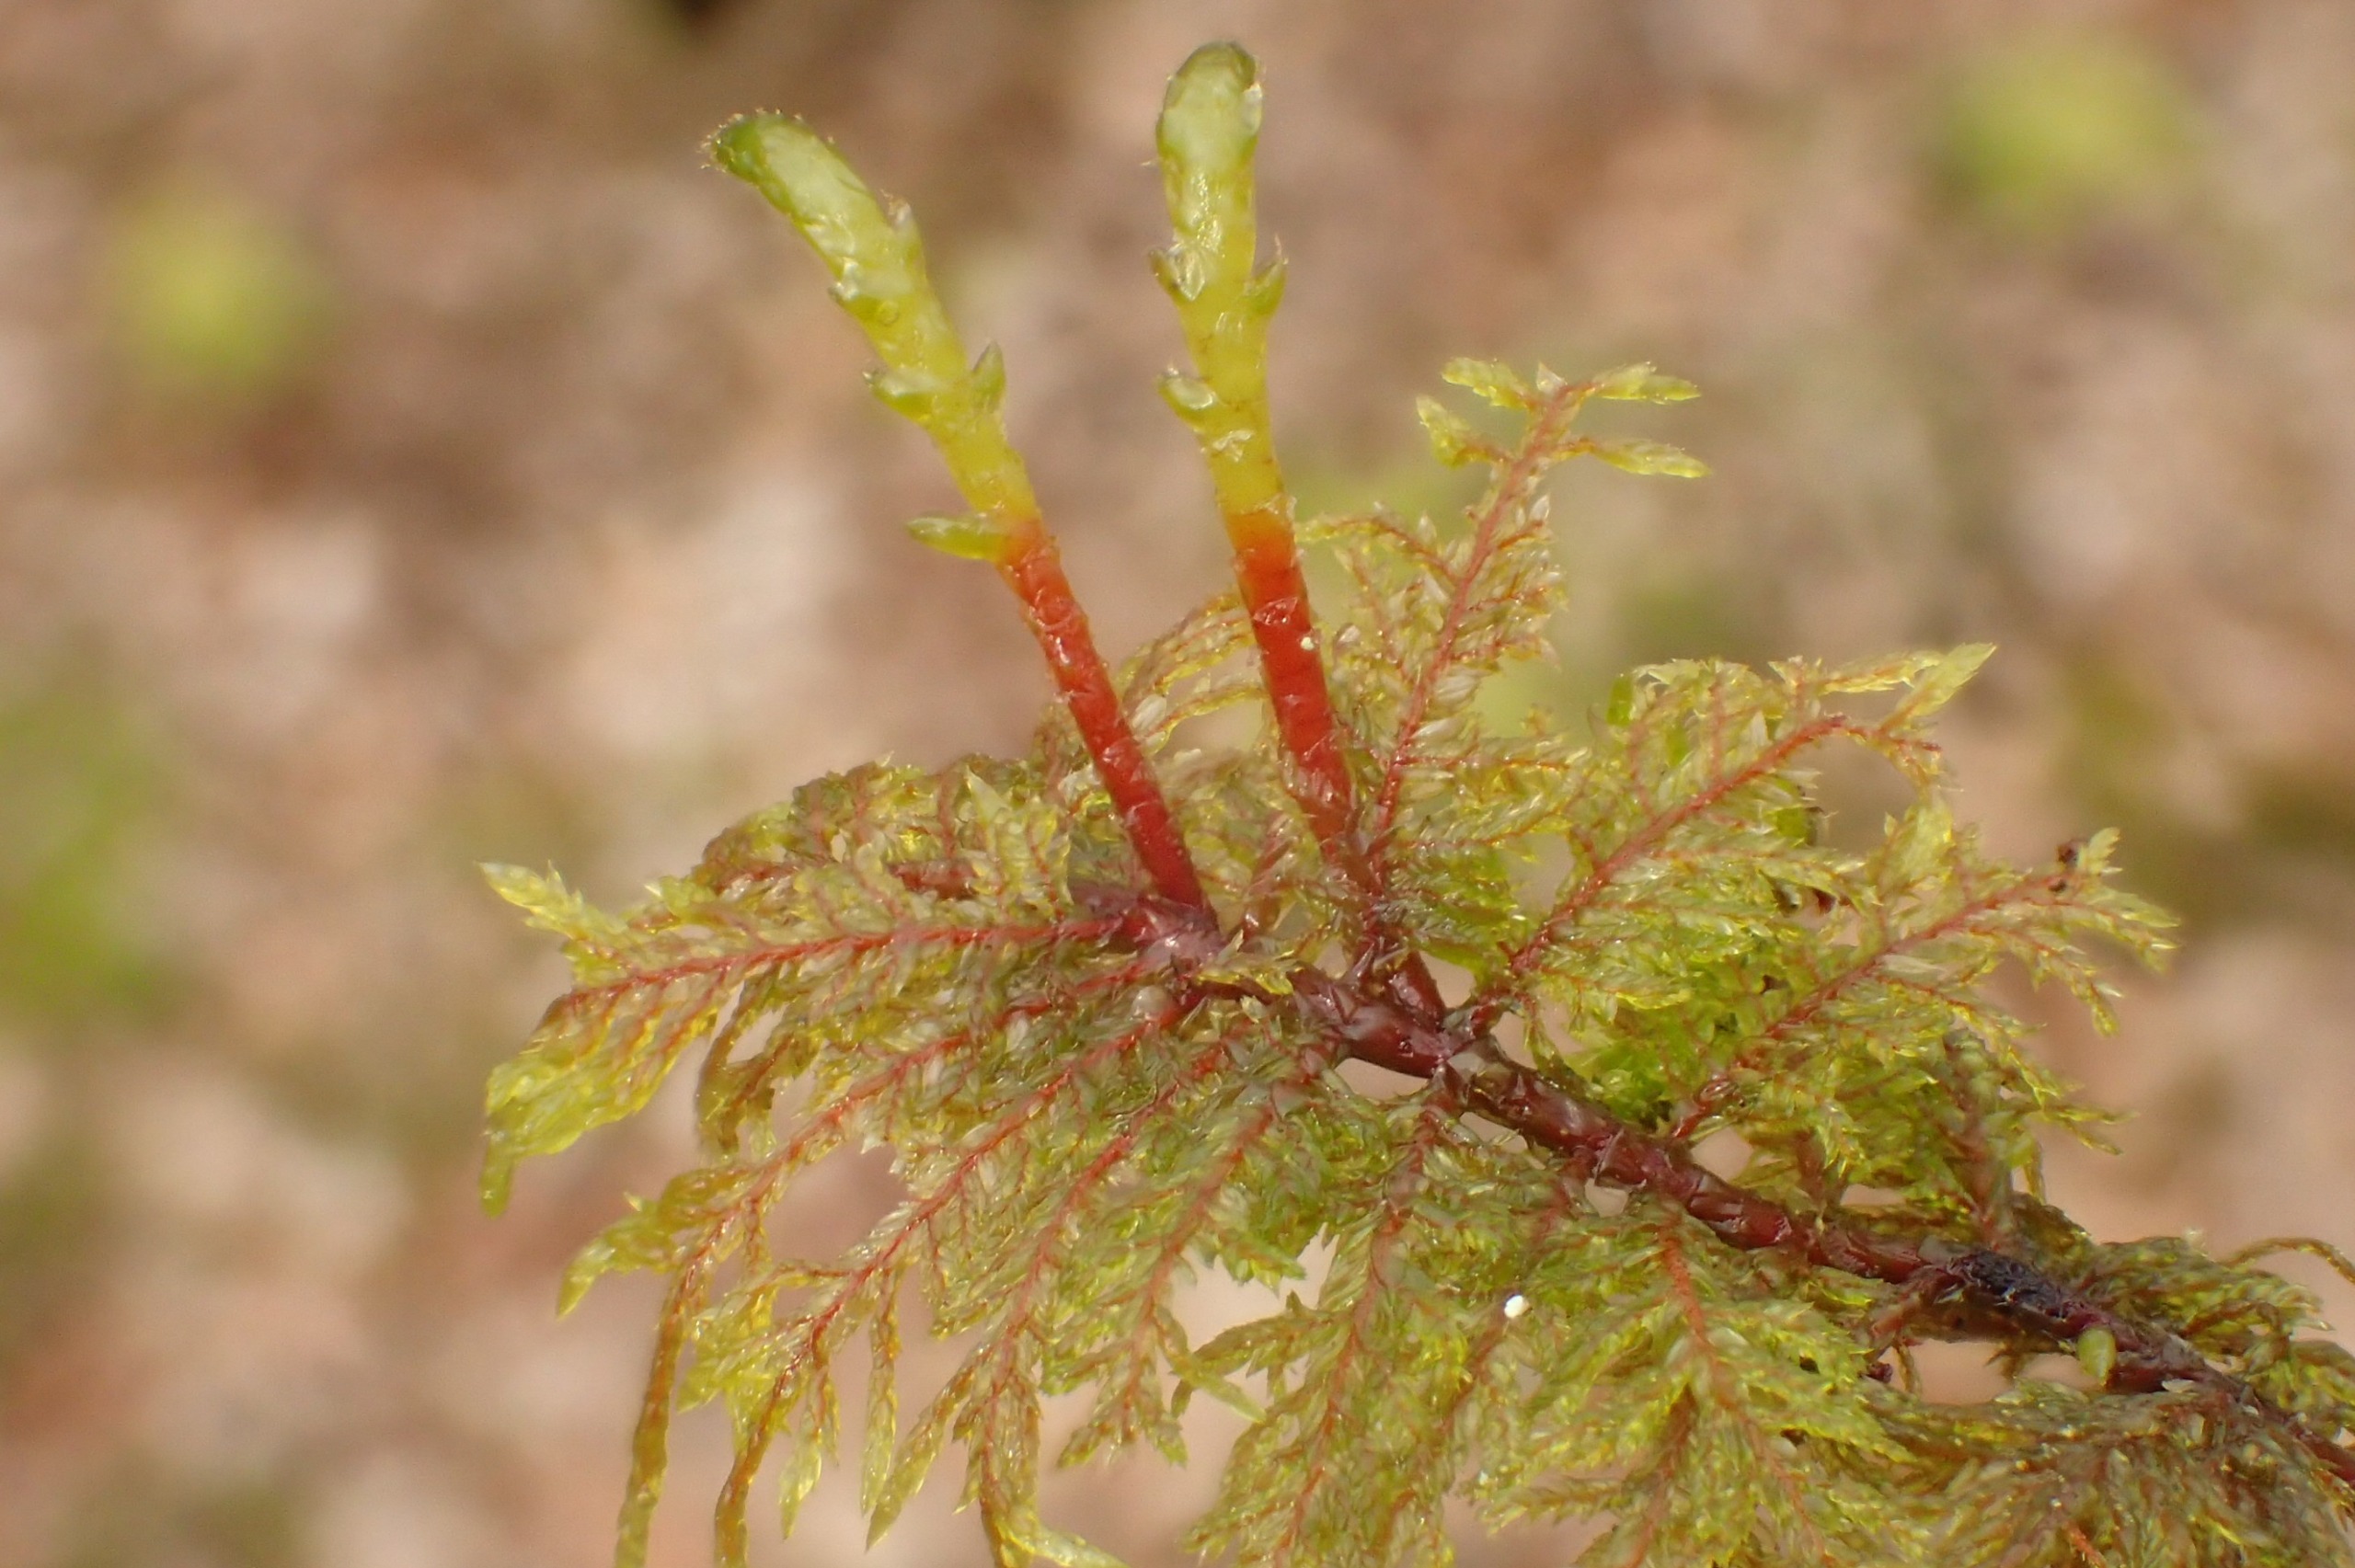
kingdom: Plantae
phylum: Bryophyta
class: Bryopsida
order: Hypnales
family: Hylocomiaceae
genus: Hylocomium
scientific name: Hylocomium splendens
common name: Almindelig etagemos
